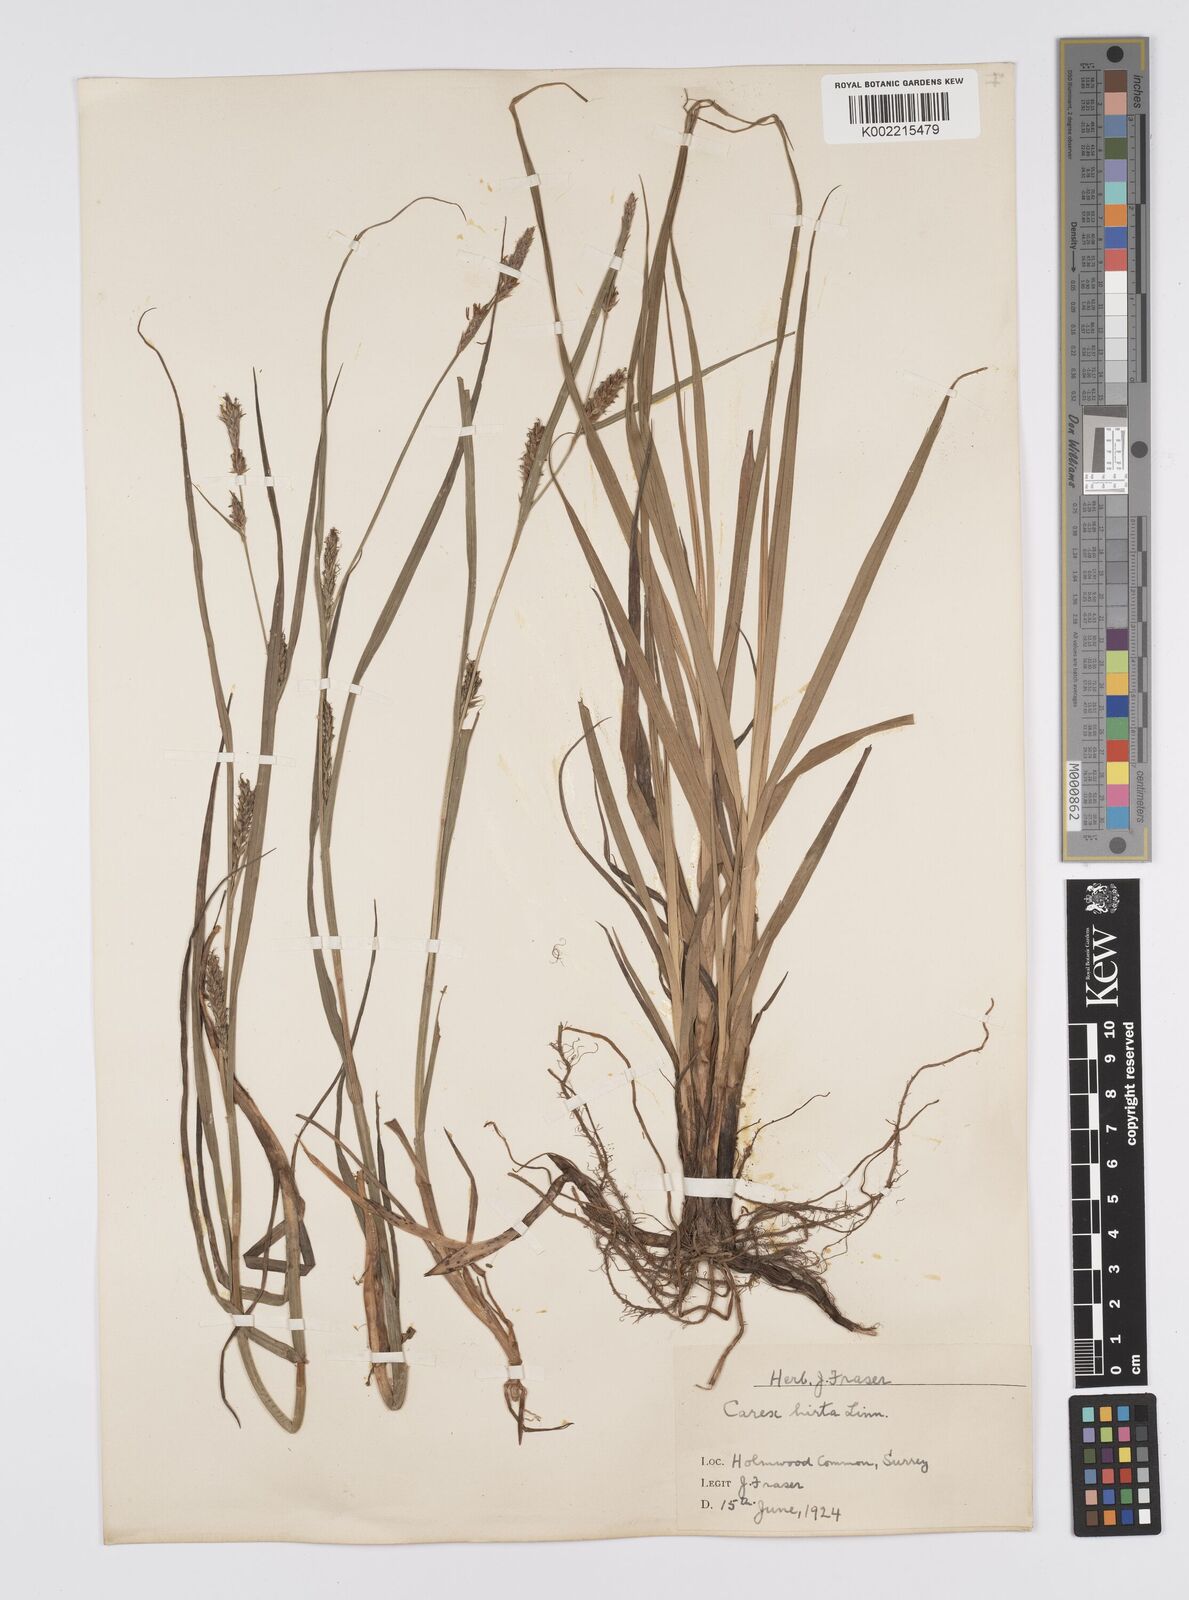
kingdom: Plantae
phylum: Tracheophyta
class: Liliopsida
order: Poales
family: Cyperaceae
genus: Carex
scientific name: Carex hirta
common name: Hairy sedge
